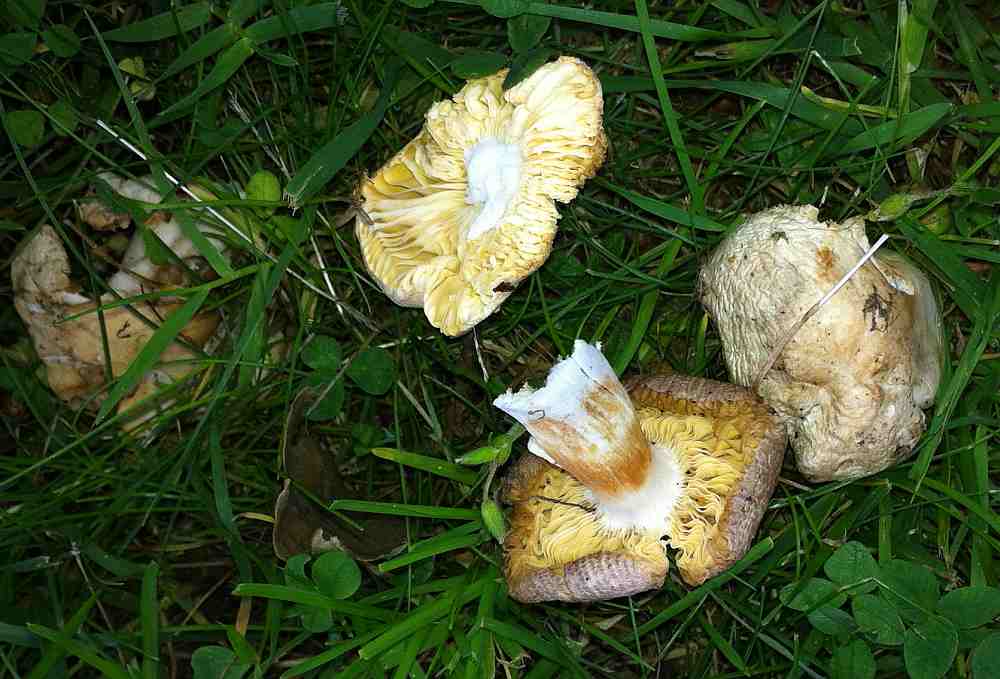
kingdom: Fungi
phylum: Basidiomycota
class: Agaricomycetes
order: Russulales
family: Russulaceae
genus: Russula
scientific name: Russula odorata
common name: duft-skørhat
